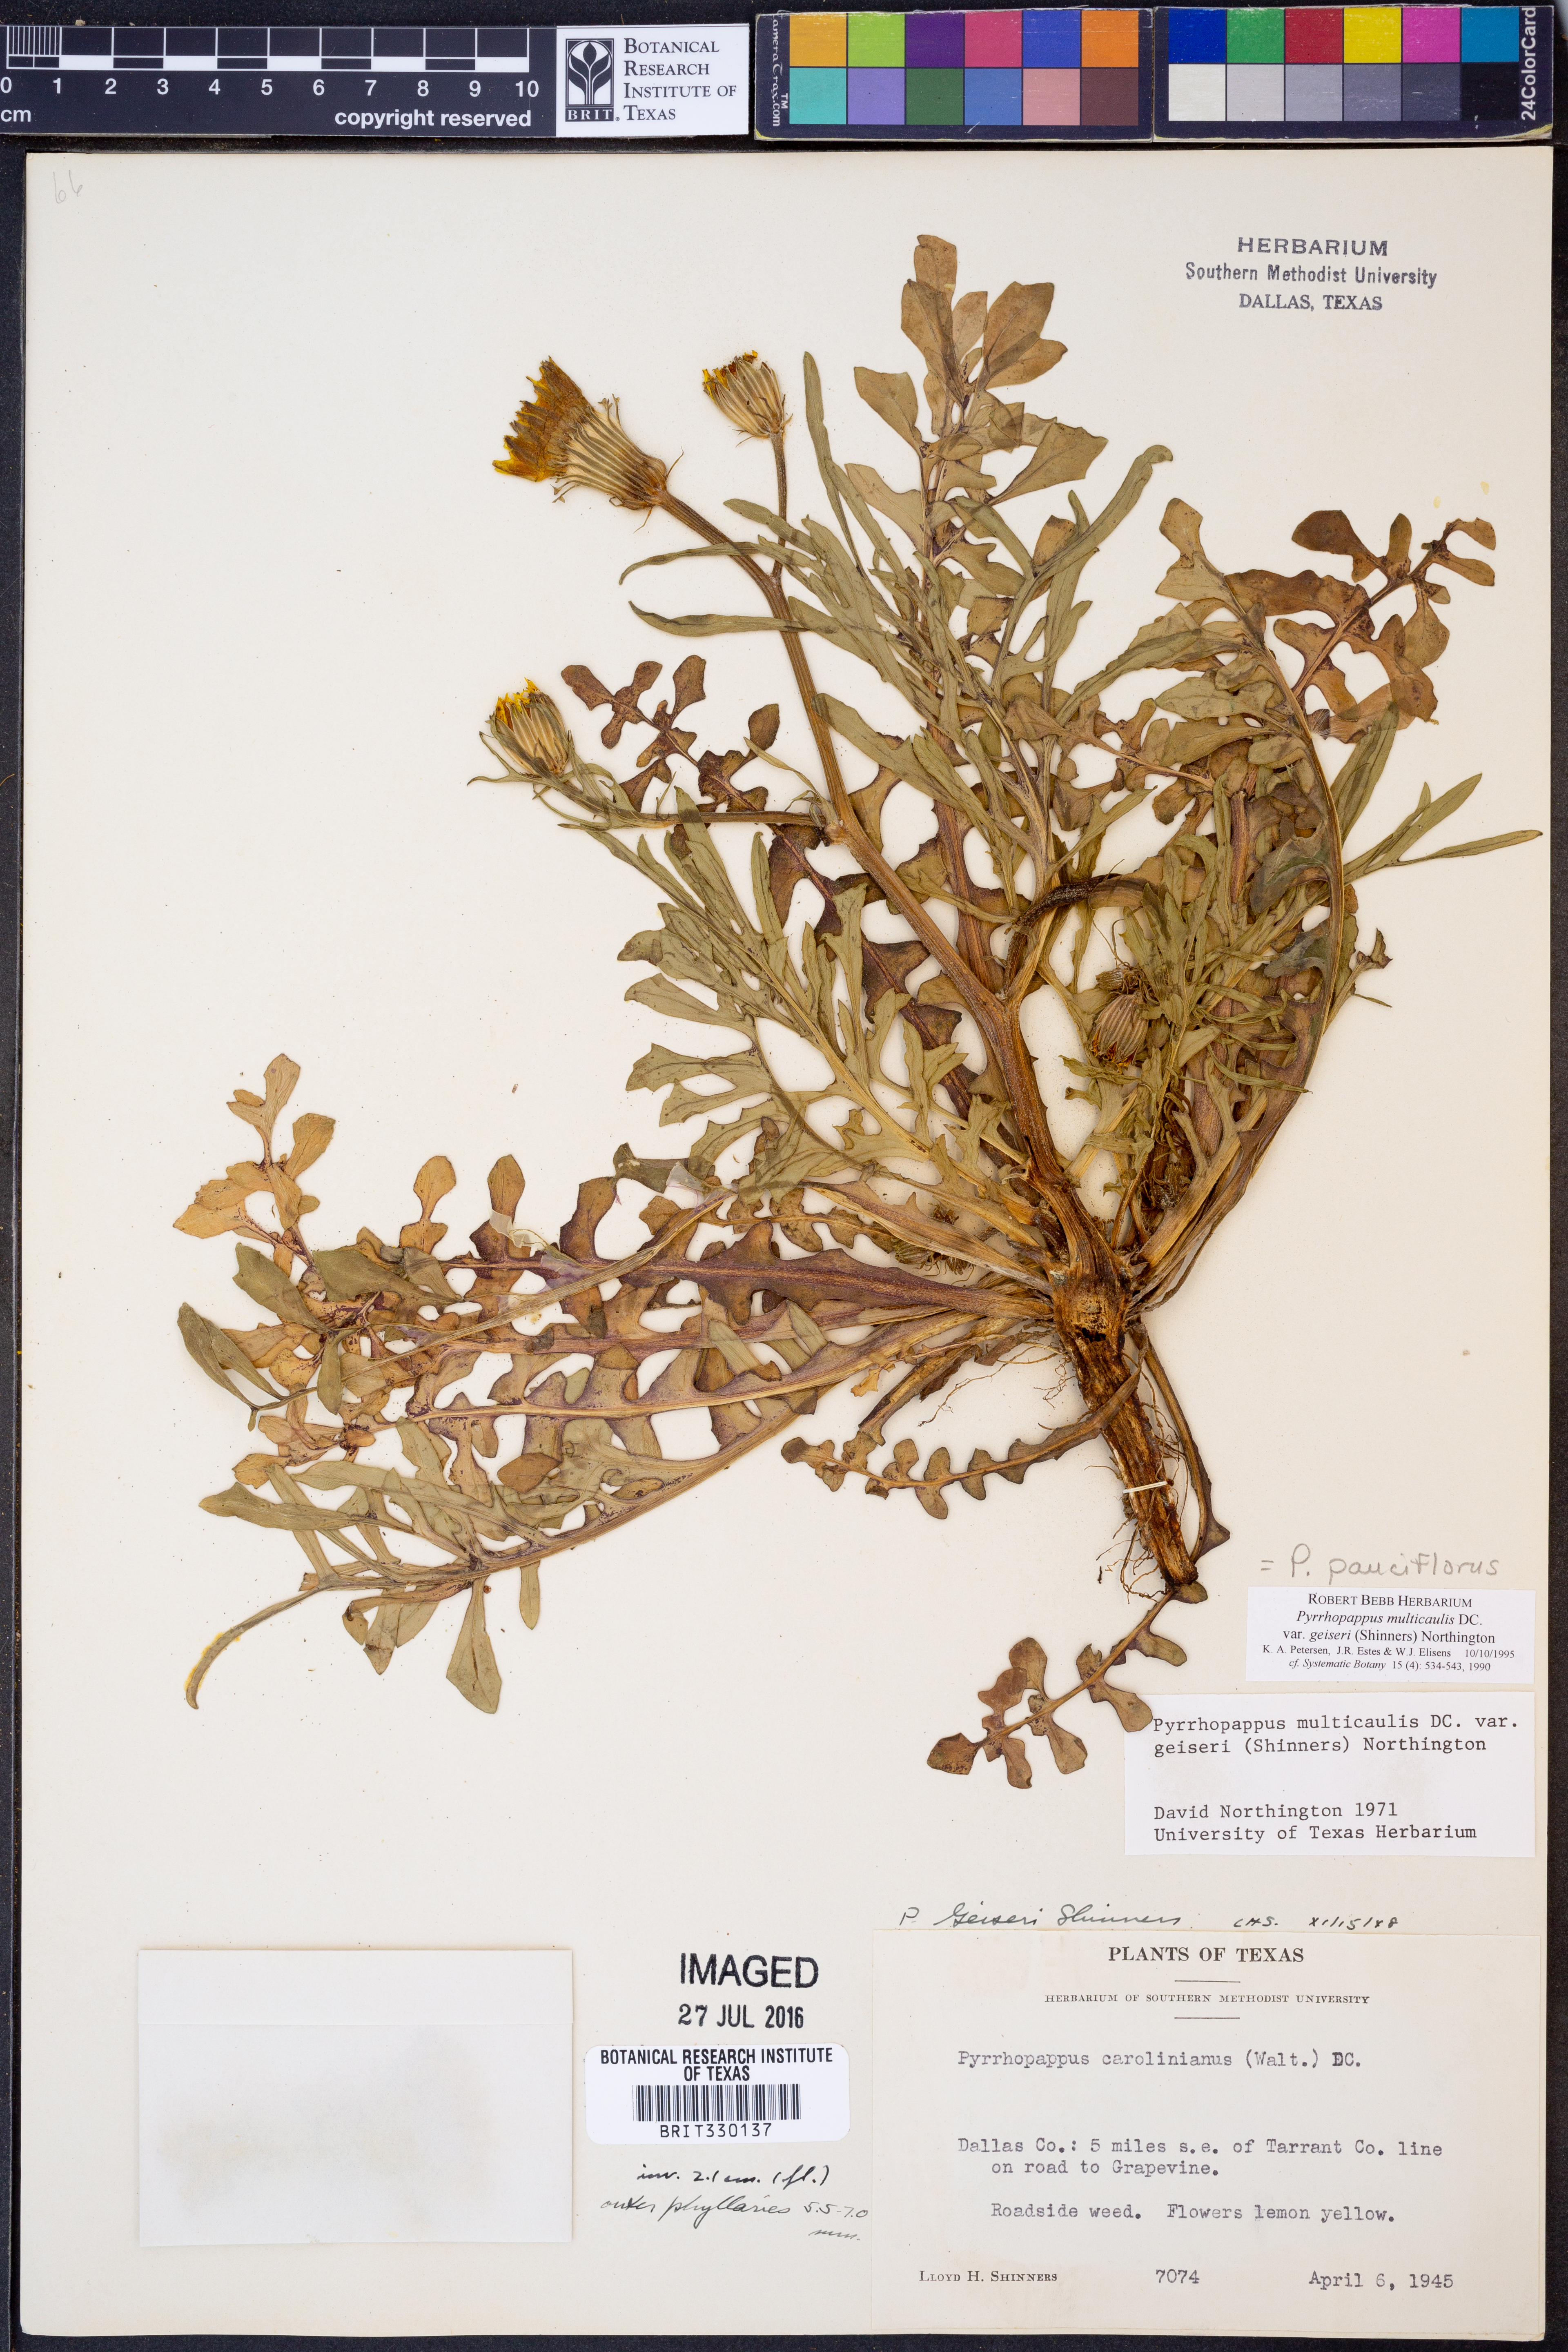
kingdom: Plantae
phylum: Tracheophyta
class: Magnoliopsida
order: Asterales
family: Asteraceae
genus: Pyrrhopappus
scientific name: Pyrrhopappus pauciflorus
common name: Texas false dandelion
